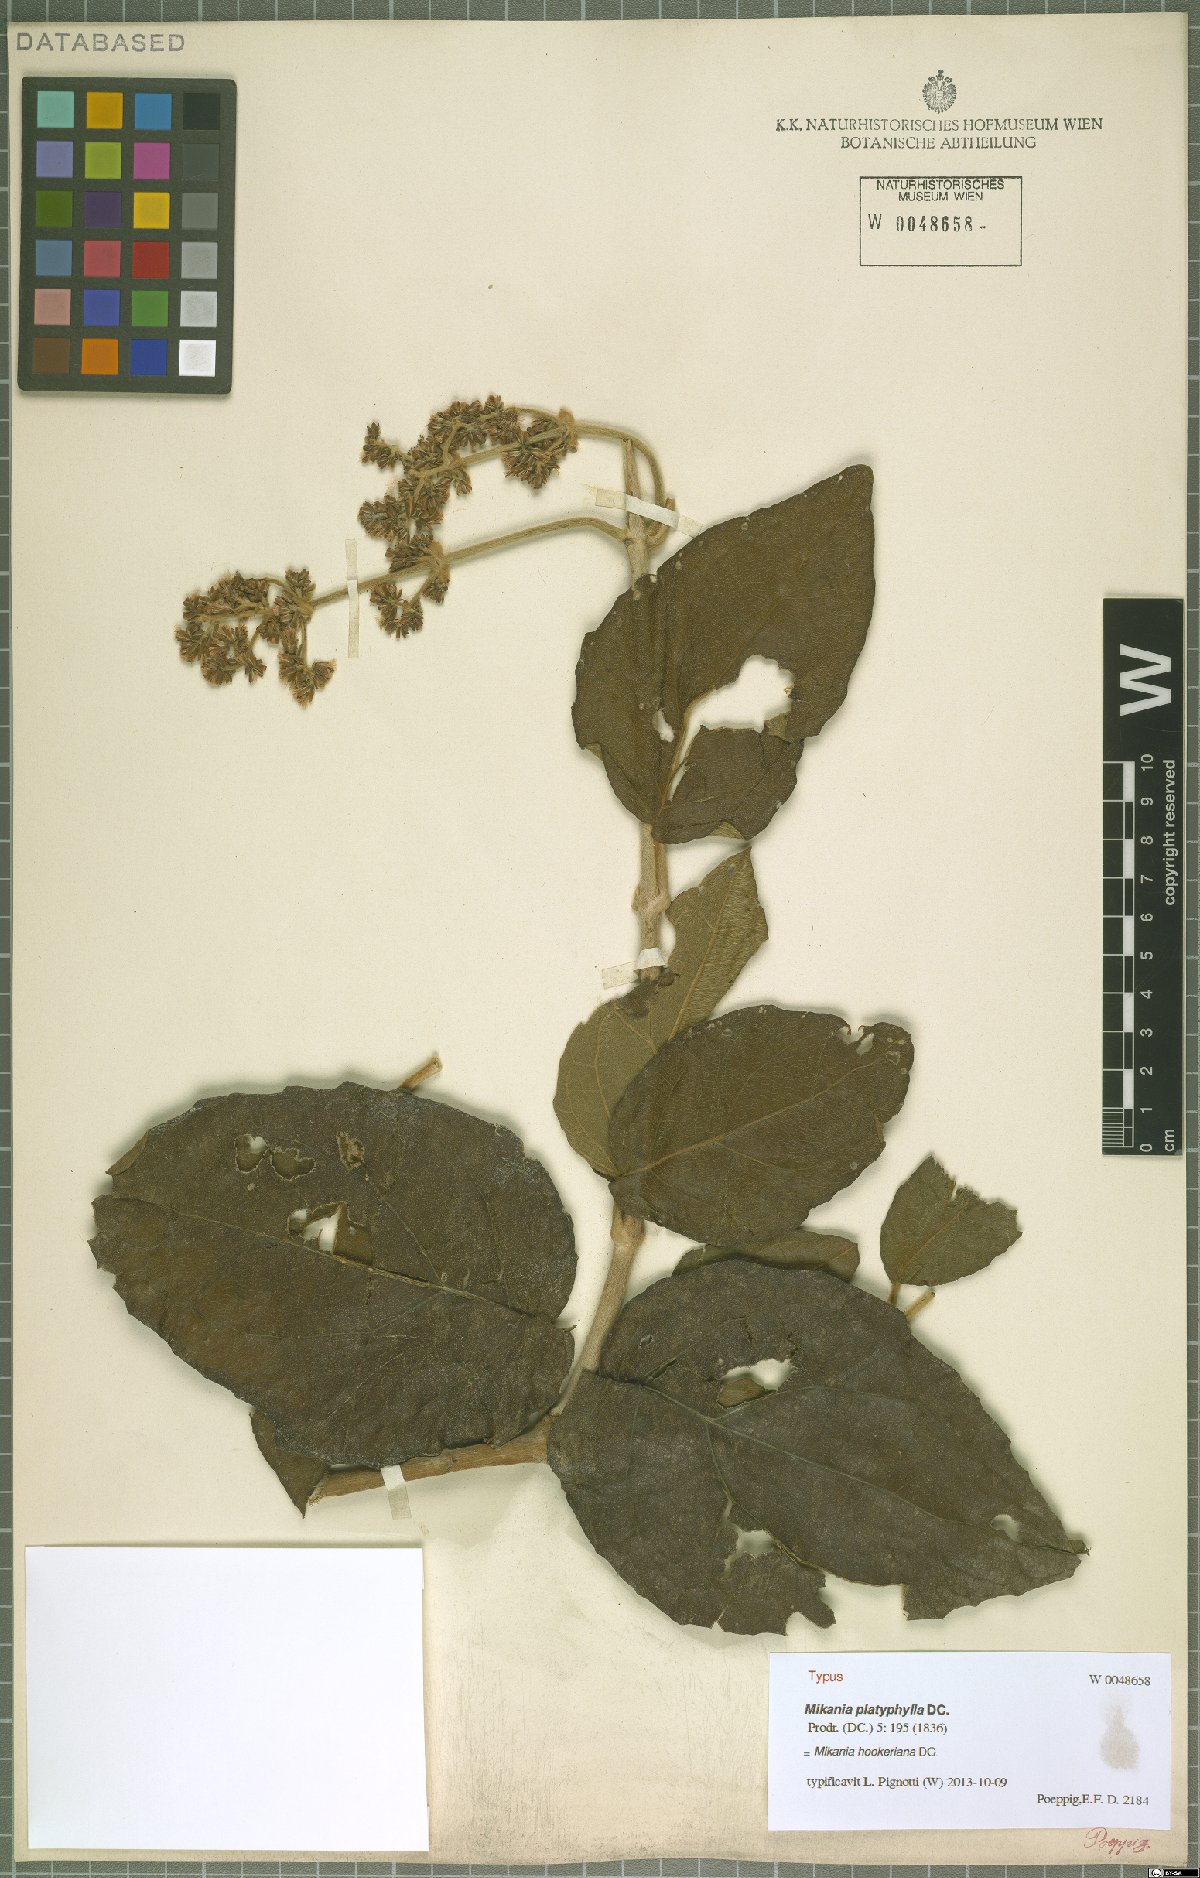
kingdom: Plantae
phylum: Tracheophyta
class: Magnoliopsida
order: Asterales
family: Asteraceae
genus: Mikania
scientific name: Mikania hookeriana
